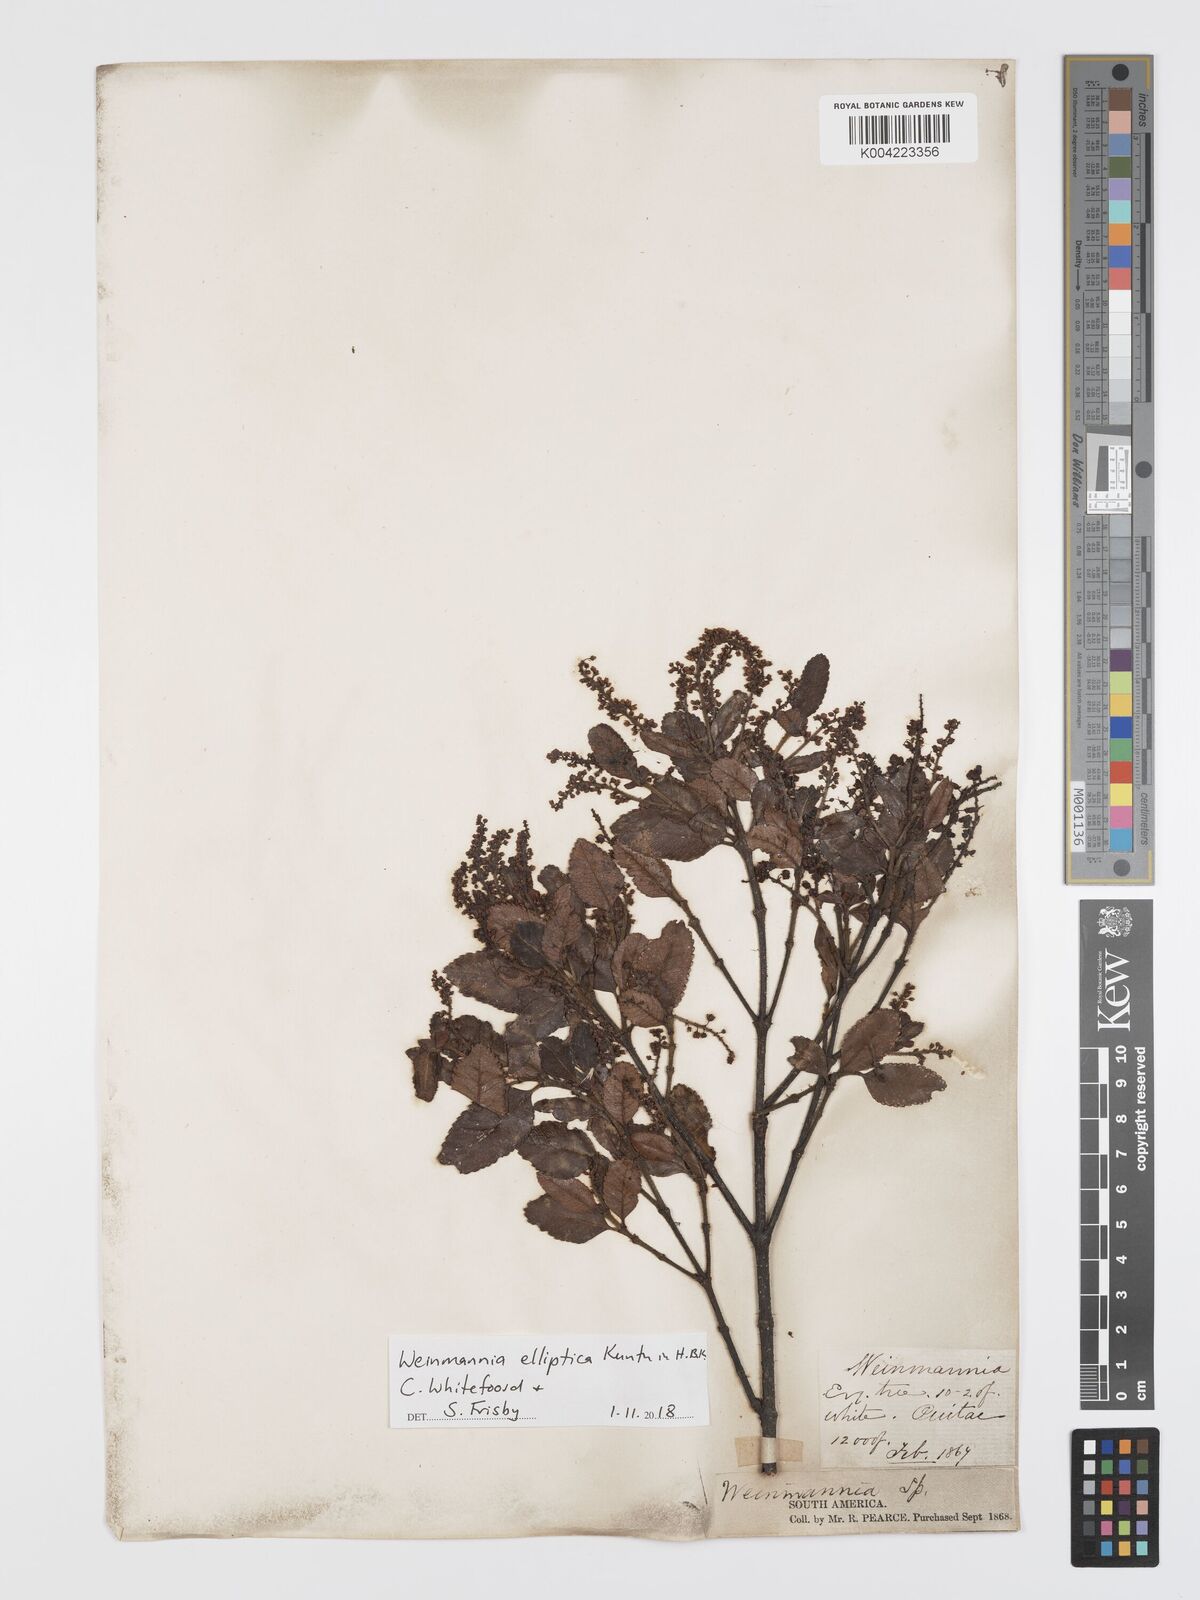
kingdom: Plantae
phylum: Tracheophyta
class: Magnoliopsida
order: Oxalidales
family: Cunoniaceae
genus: Weinmannia
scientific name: Weinmannia elliptica
